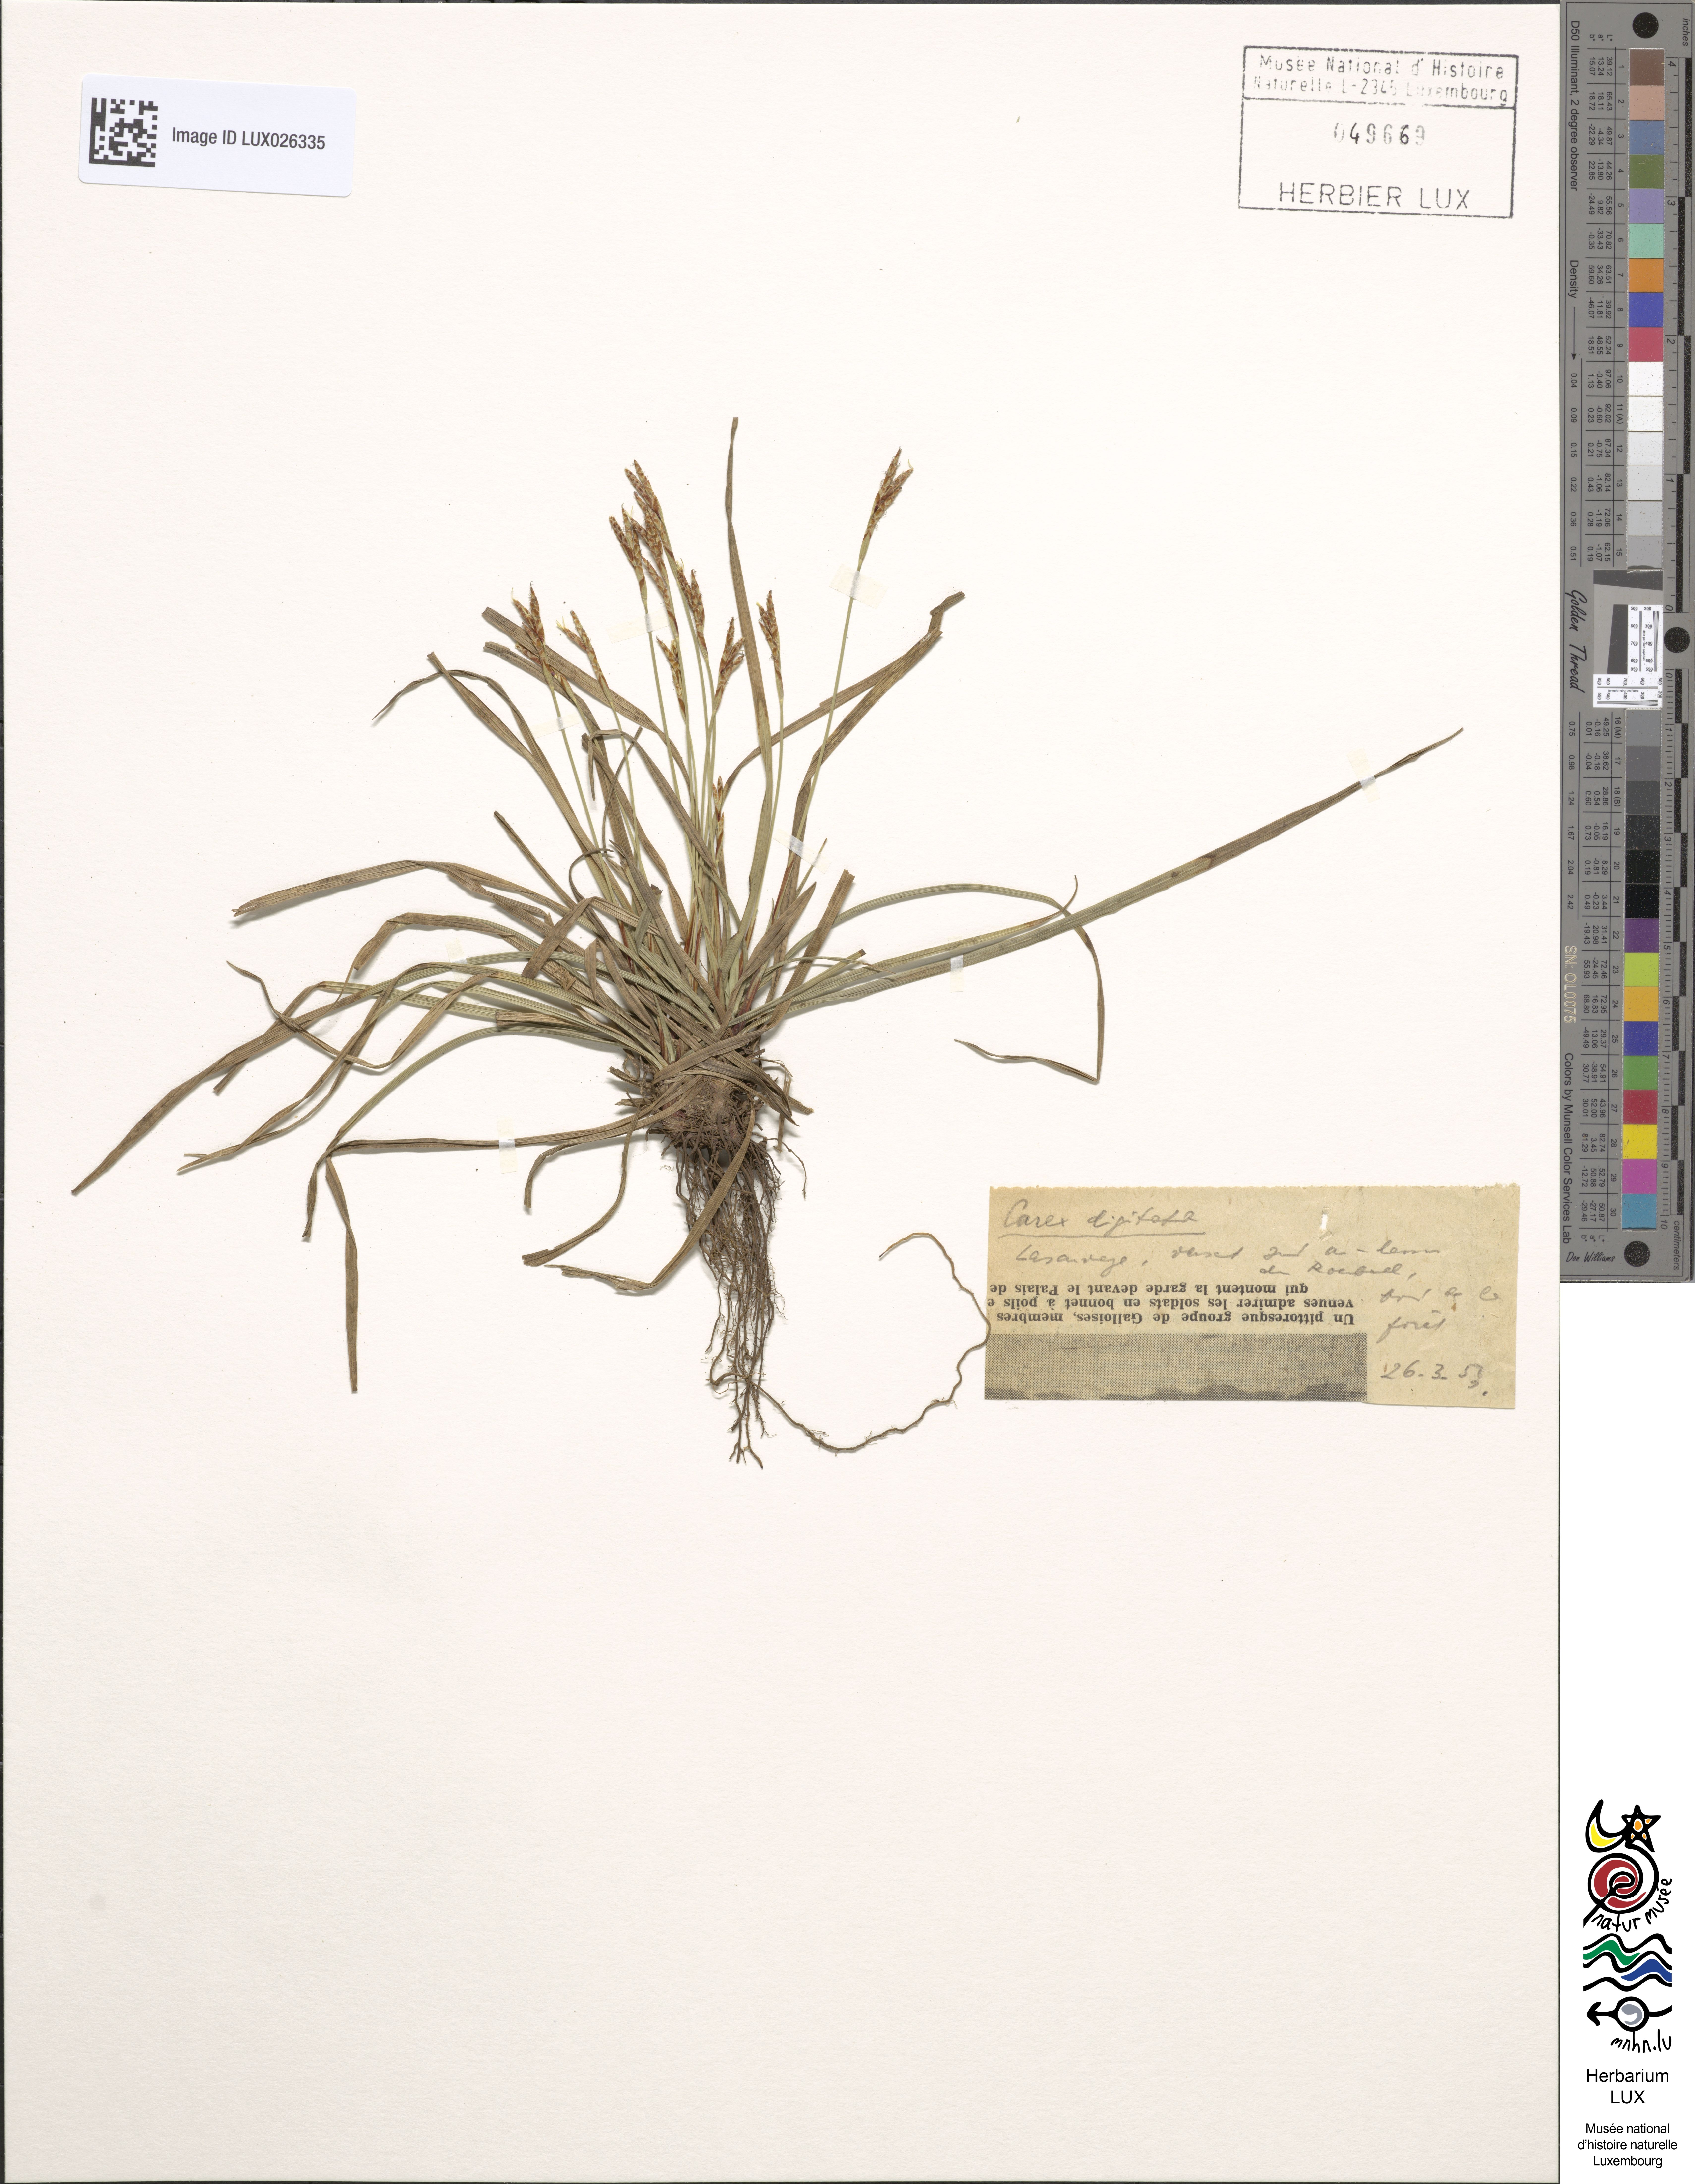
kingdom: Plantae
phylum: Tracheophyta
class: Liliopsida
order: Poales
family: Cyperaceae
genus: Carex
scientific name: Carex digitata
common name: Fingered sedge
